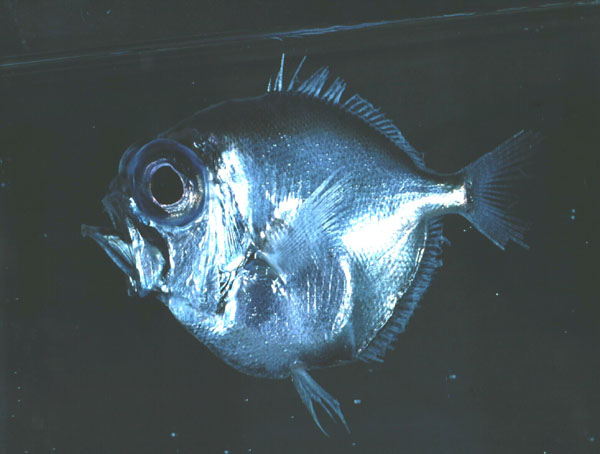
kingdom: Animalia
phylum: Chordata
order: Beryciformes
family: Diretmidae
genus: Diretmus
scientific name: Diretmus argenteus
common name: Silver spinyfin
